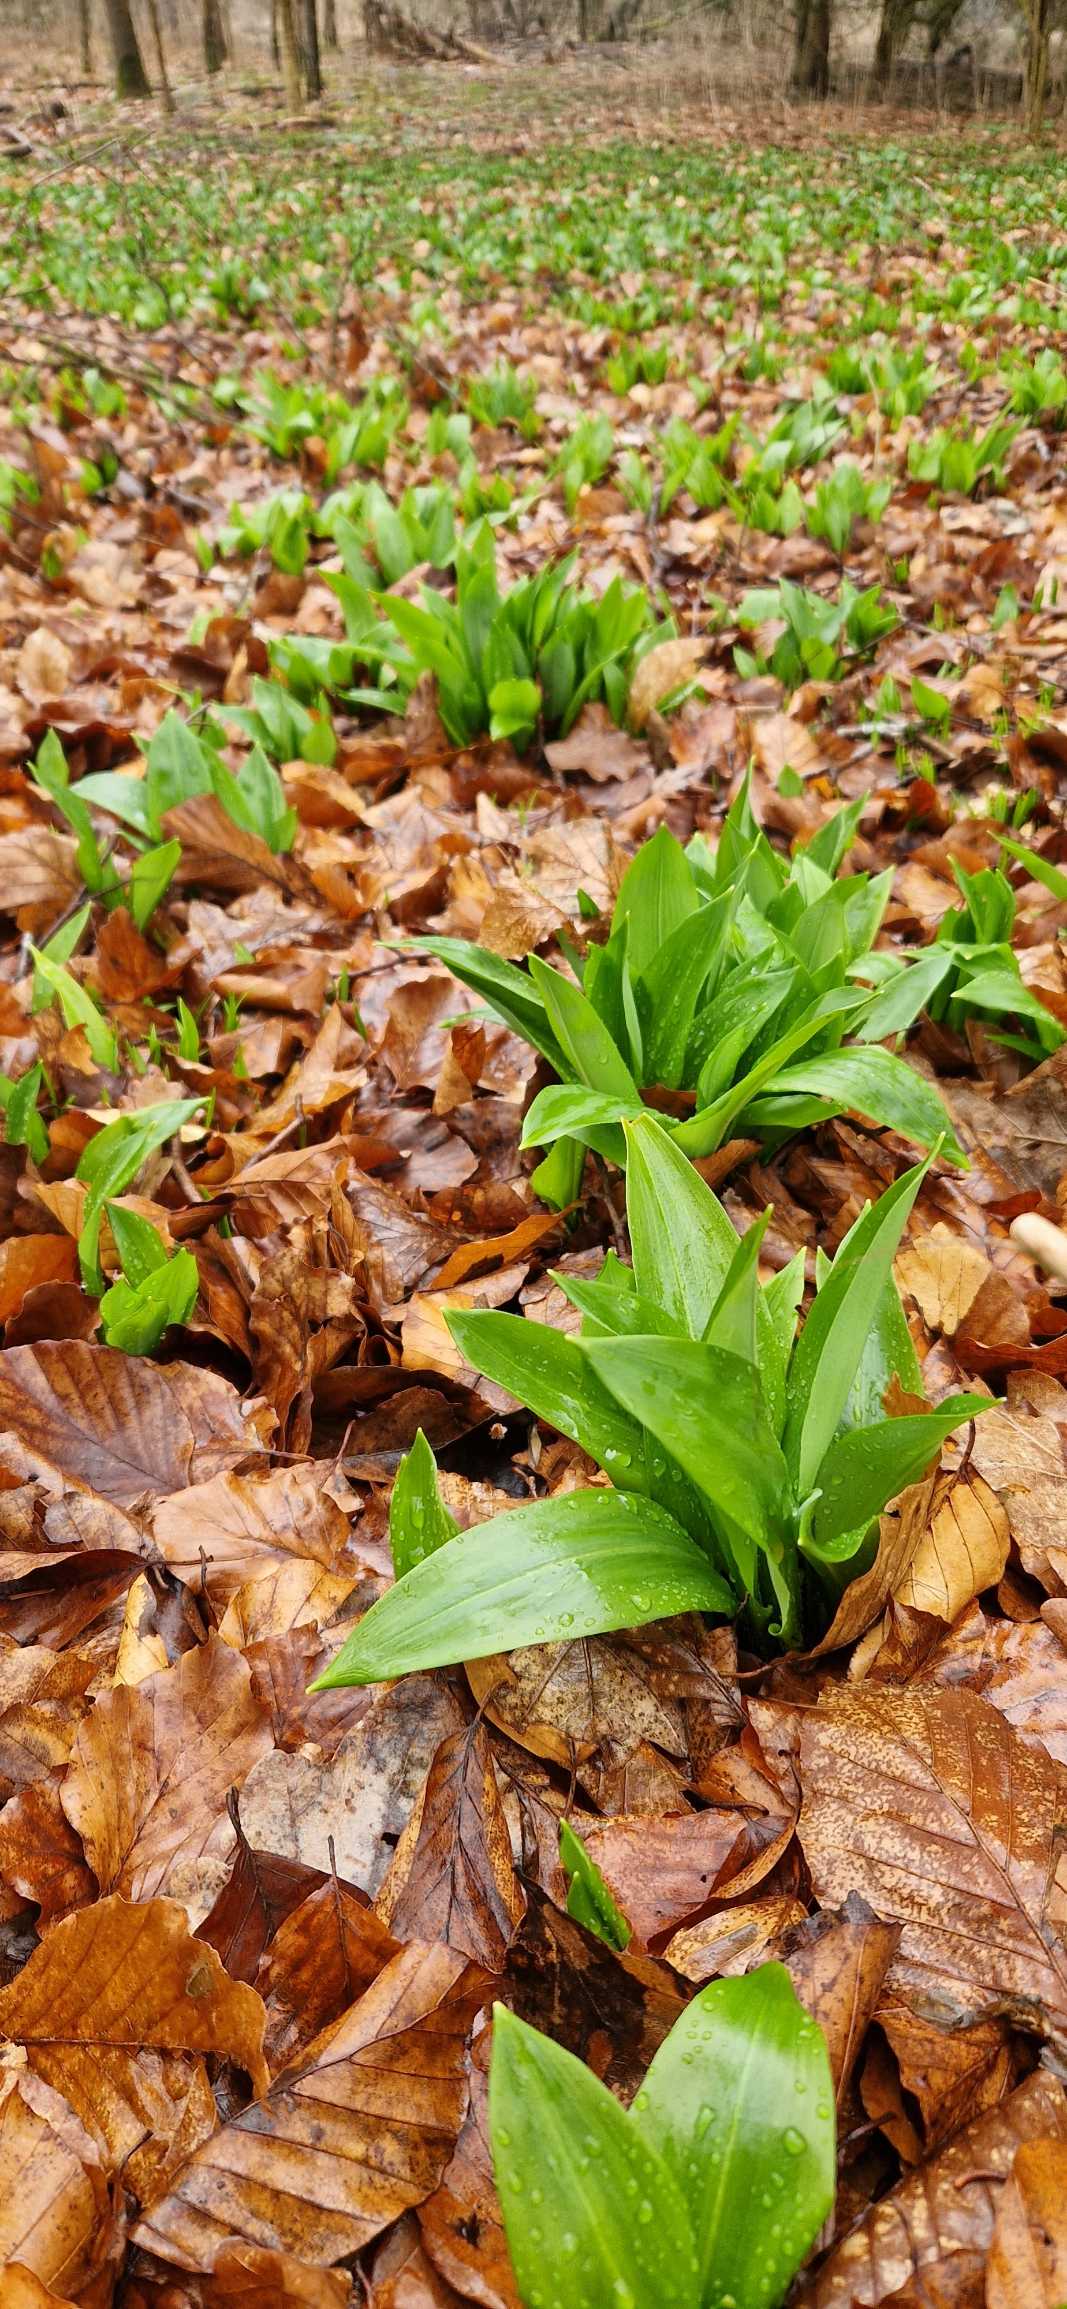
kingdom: Plantae
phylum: Tracheophyta
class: Liliopsida
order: Asparagales
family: Amaryllidaceae
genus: Allium
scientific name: Allium ursinum
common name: Rams-løg
